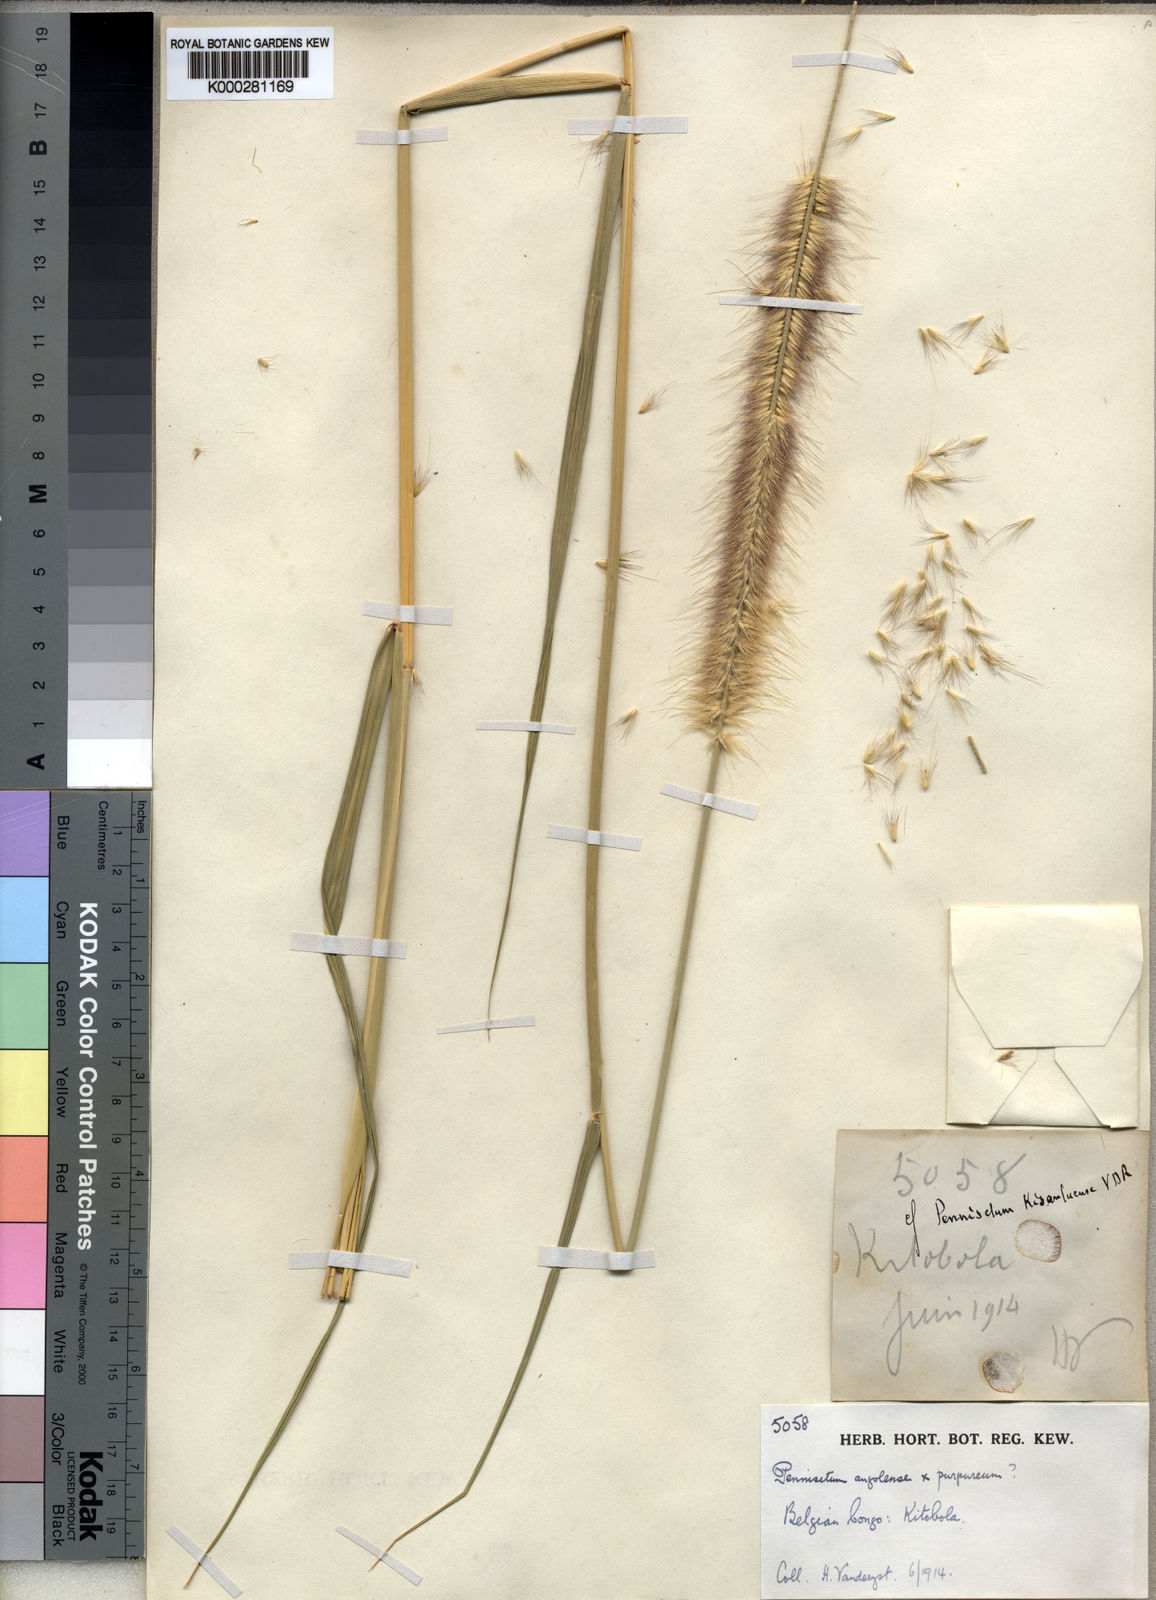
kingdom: Plantae
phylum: Tracheophyta
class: Liliopsida
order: Poales
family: Poaceae
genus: Cenchrus
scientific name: Cenchrus caudatus
